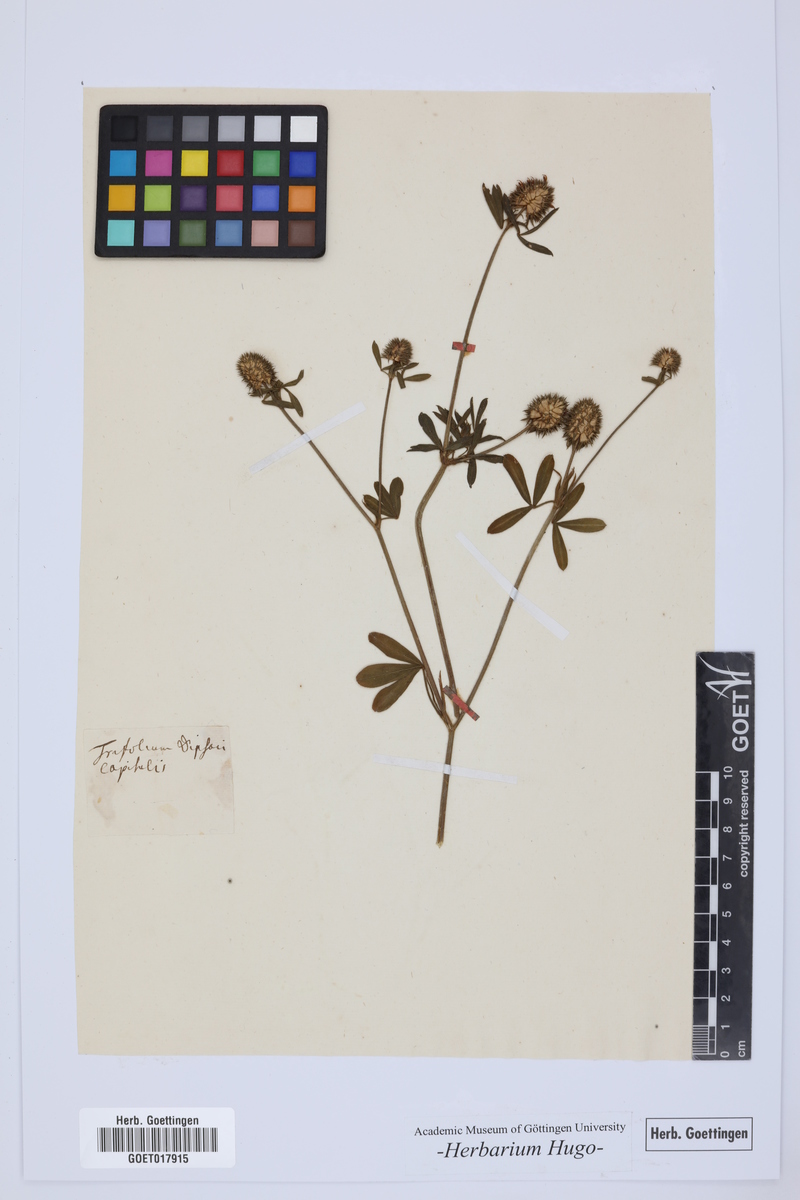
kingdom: Plantae
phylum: Tracheophyta
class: Magnoliopsida
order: Fabales
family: Fabaceae
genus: Trifolium
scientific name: Trifolium
